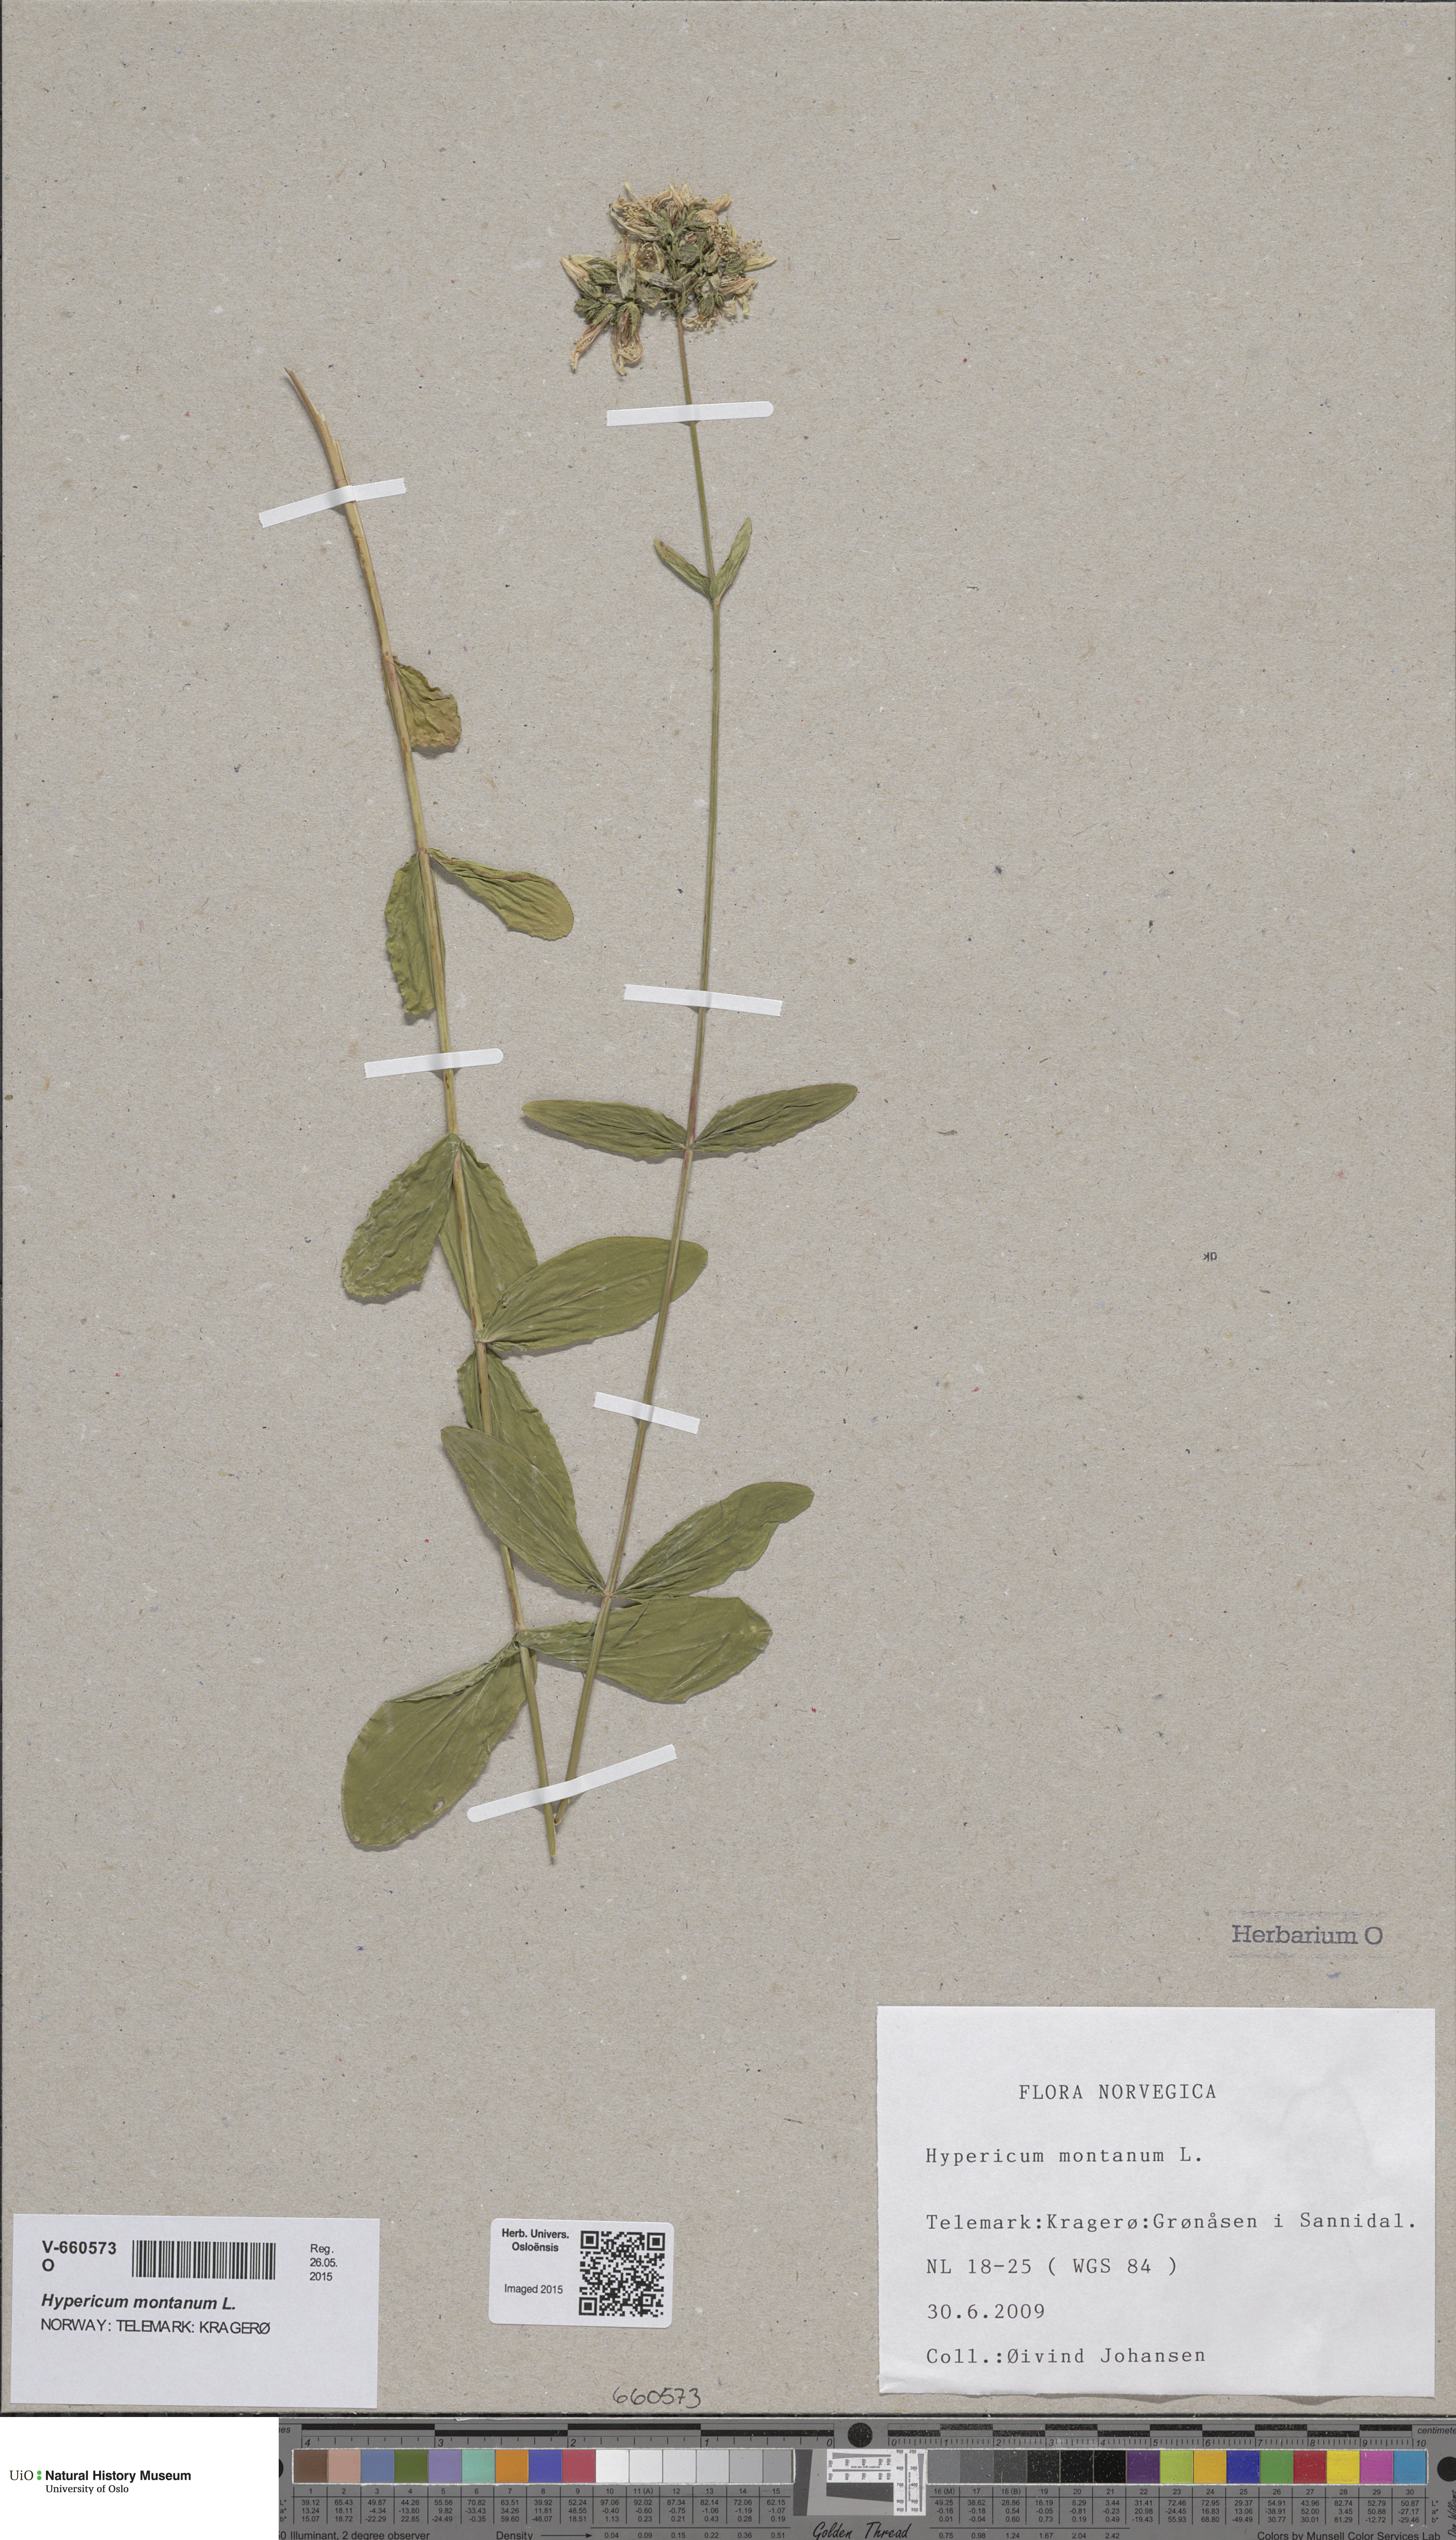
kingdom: Plantae
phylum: Tracheophyta
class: Magnoliopsida
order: Malpighiales
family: Hypericaceae
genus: Hypericum
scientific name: Hypericum montanum
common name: Pale st. john's-wort
